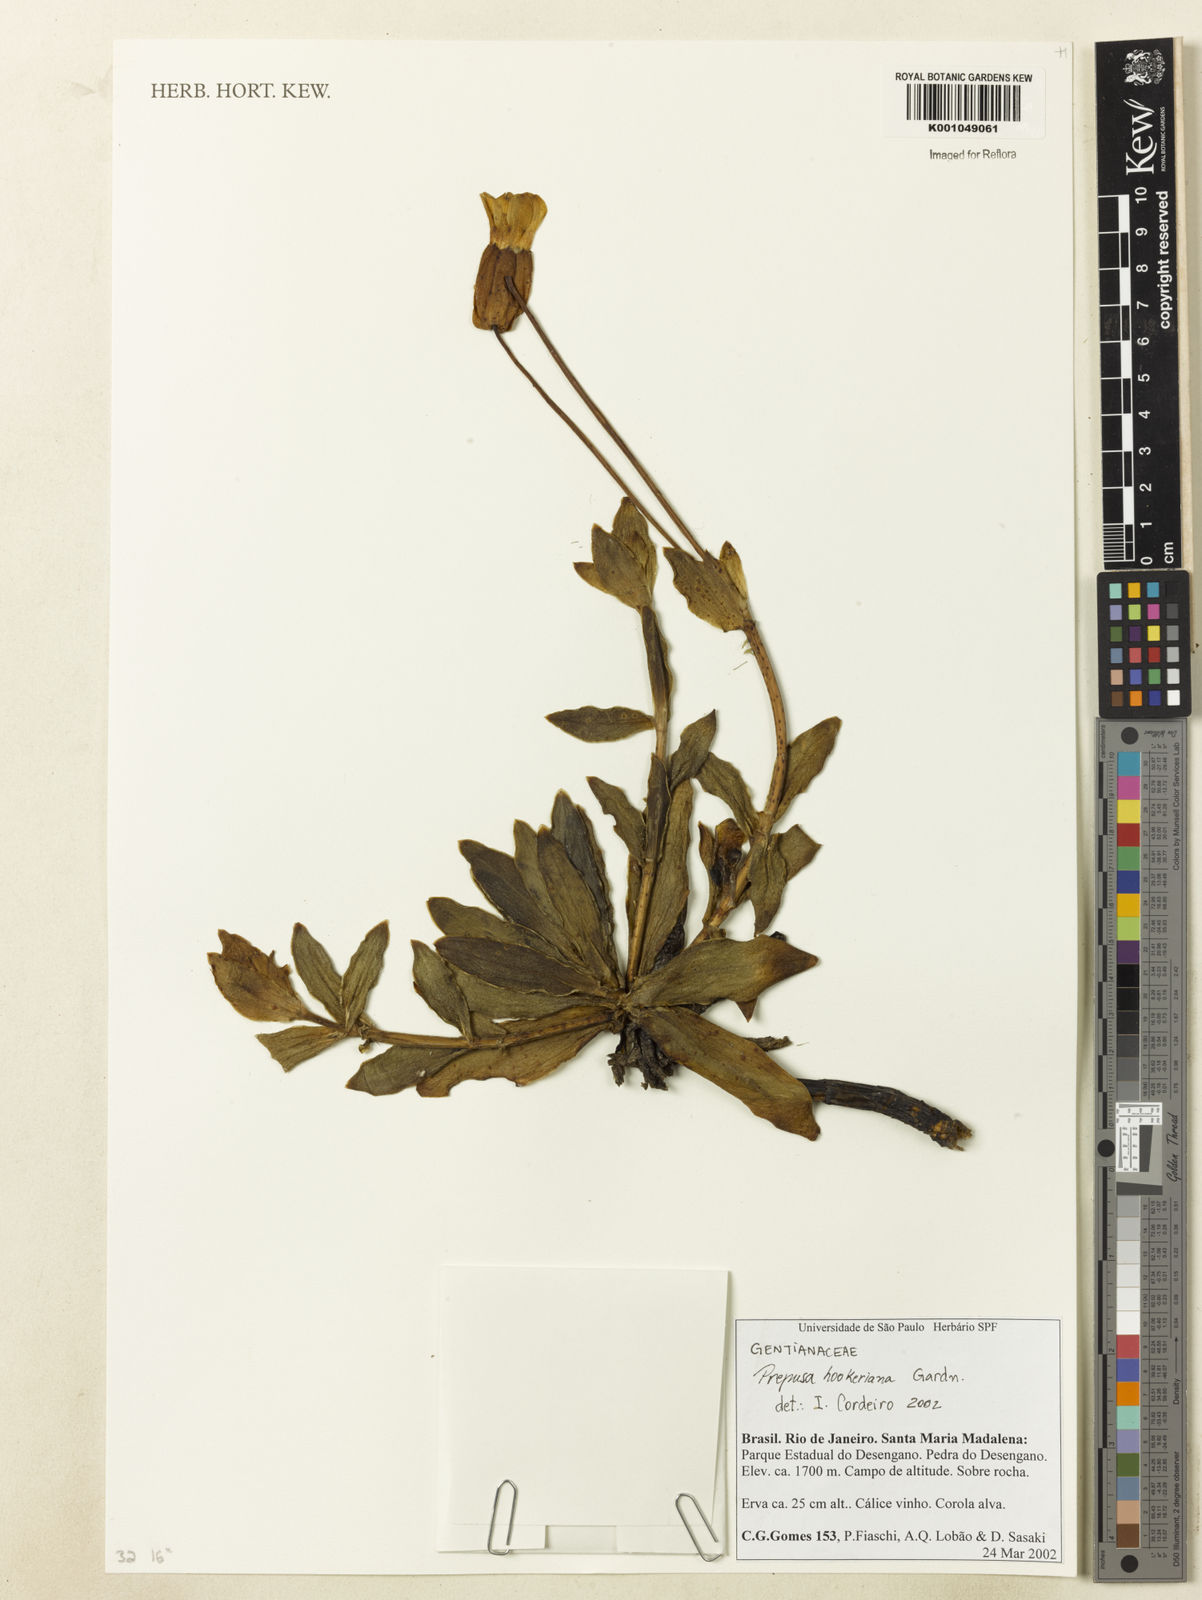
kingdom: Plantae
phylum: Tracheophyta
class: Magnoliopsida
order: Gentianales
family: Gentianaceae
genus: Prepusa
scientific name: Prepusa hookeriana
